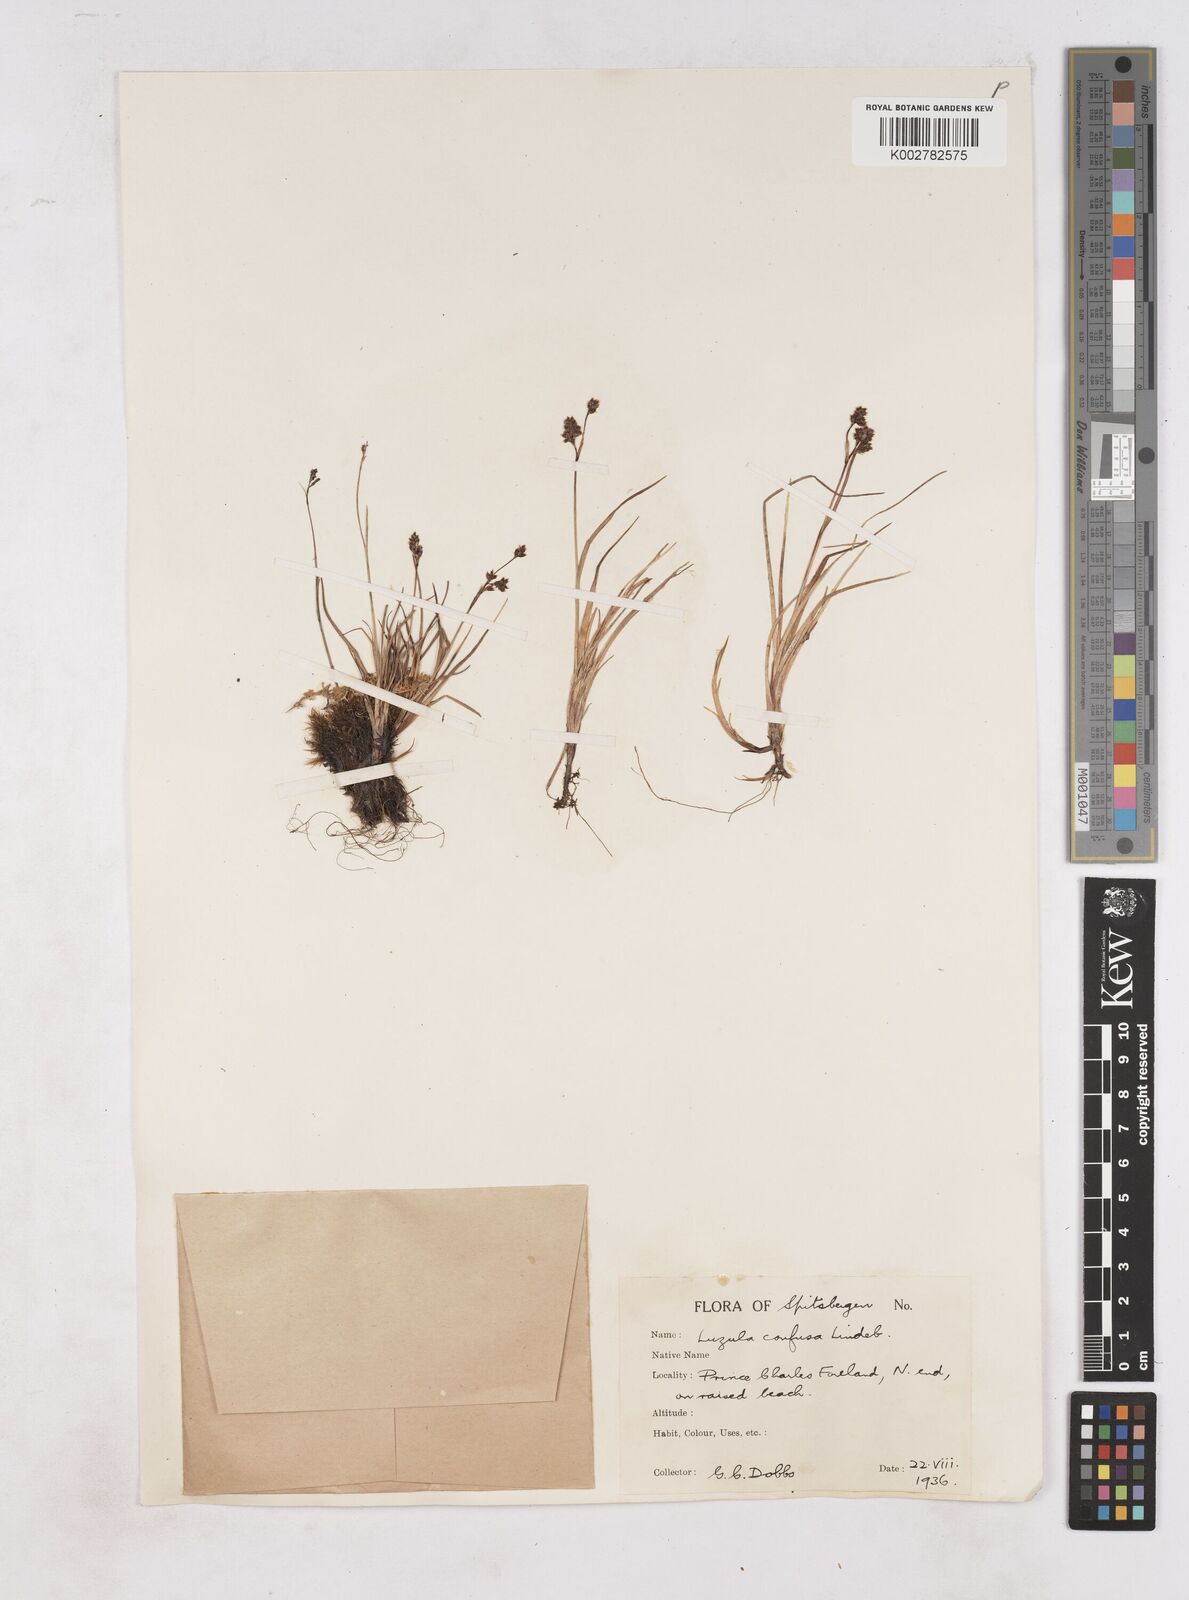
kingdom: Plantae
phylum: Tracheophyta
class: Liliopsida
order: Poales
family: Juncaceae
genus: Luzula
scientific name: Luzula confusa
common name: Northern wood rush
